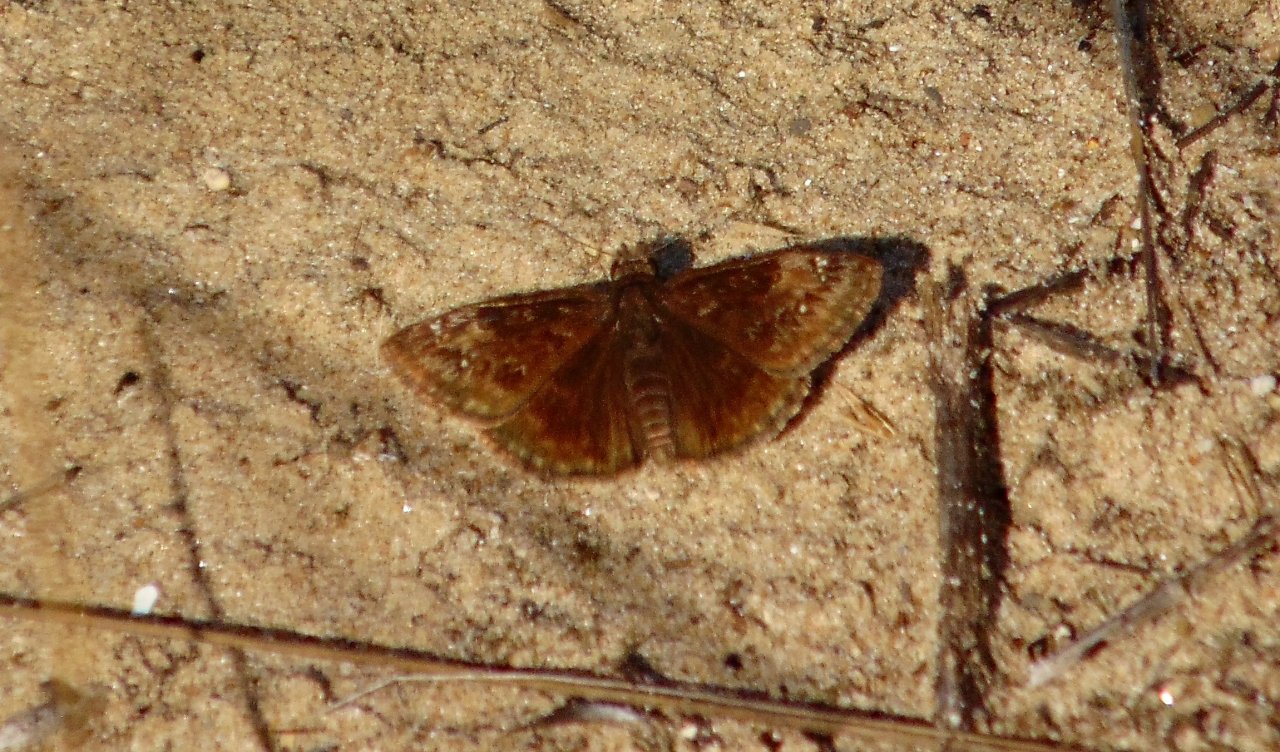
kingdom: Animalia
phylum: Arthropoda
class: Insecta
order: Lepidoptera
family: Hesperiidae
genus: Gesta
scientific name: Gesta
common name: Wild Indigo Duskywing
